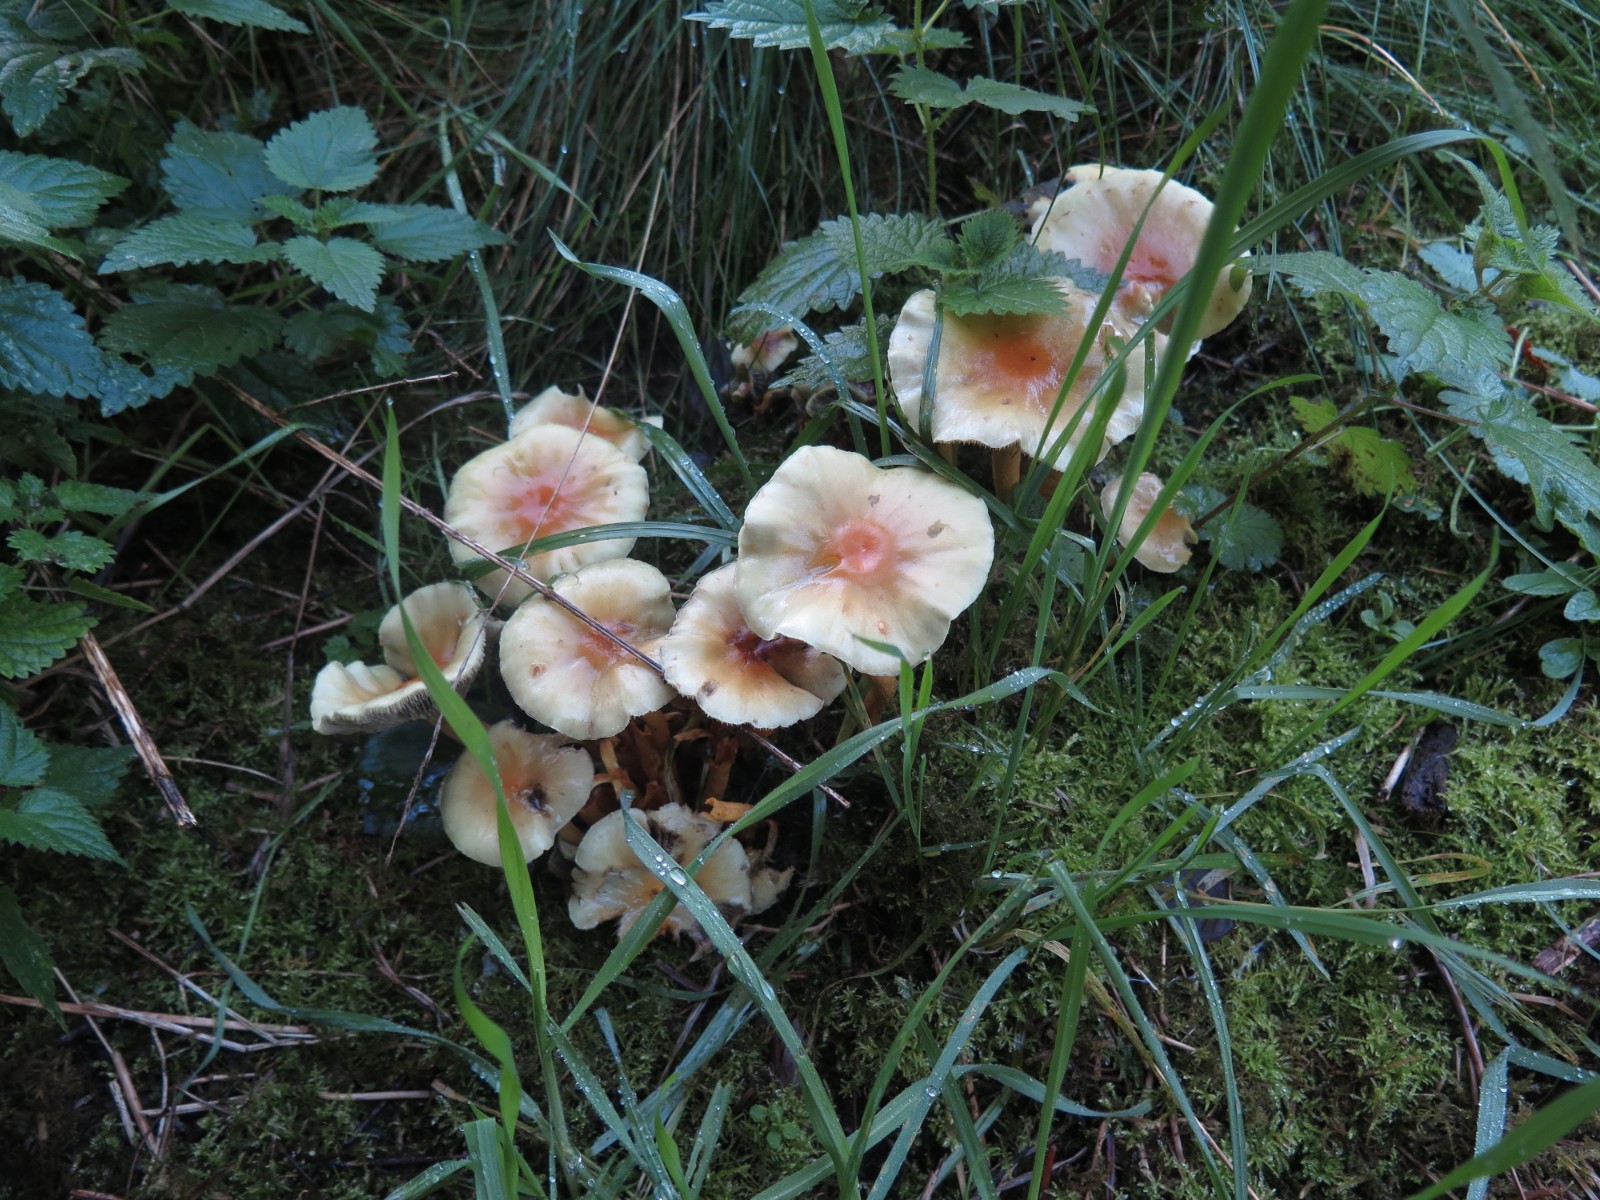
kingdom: Fungi
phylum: Basidiomycota
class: Agaricomycetes
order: Agaricales
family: Strophariaceae
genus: Hypholoma
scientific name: Hypholoma capnoides
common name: gran-svovlhat
